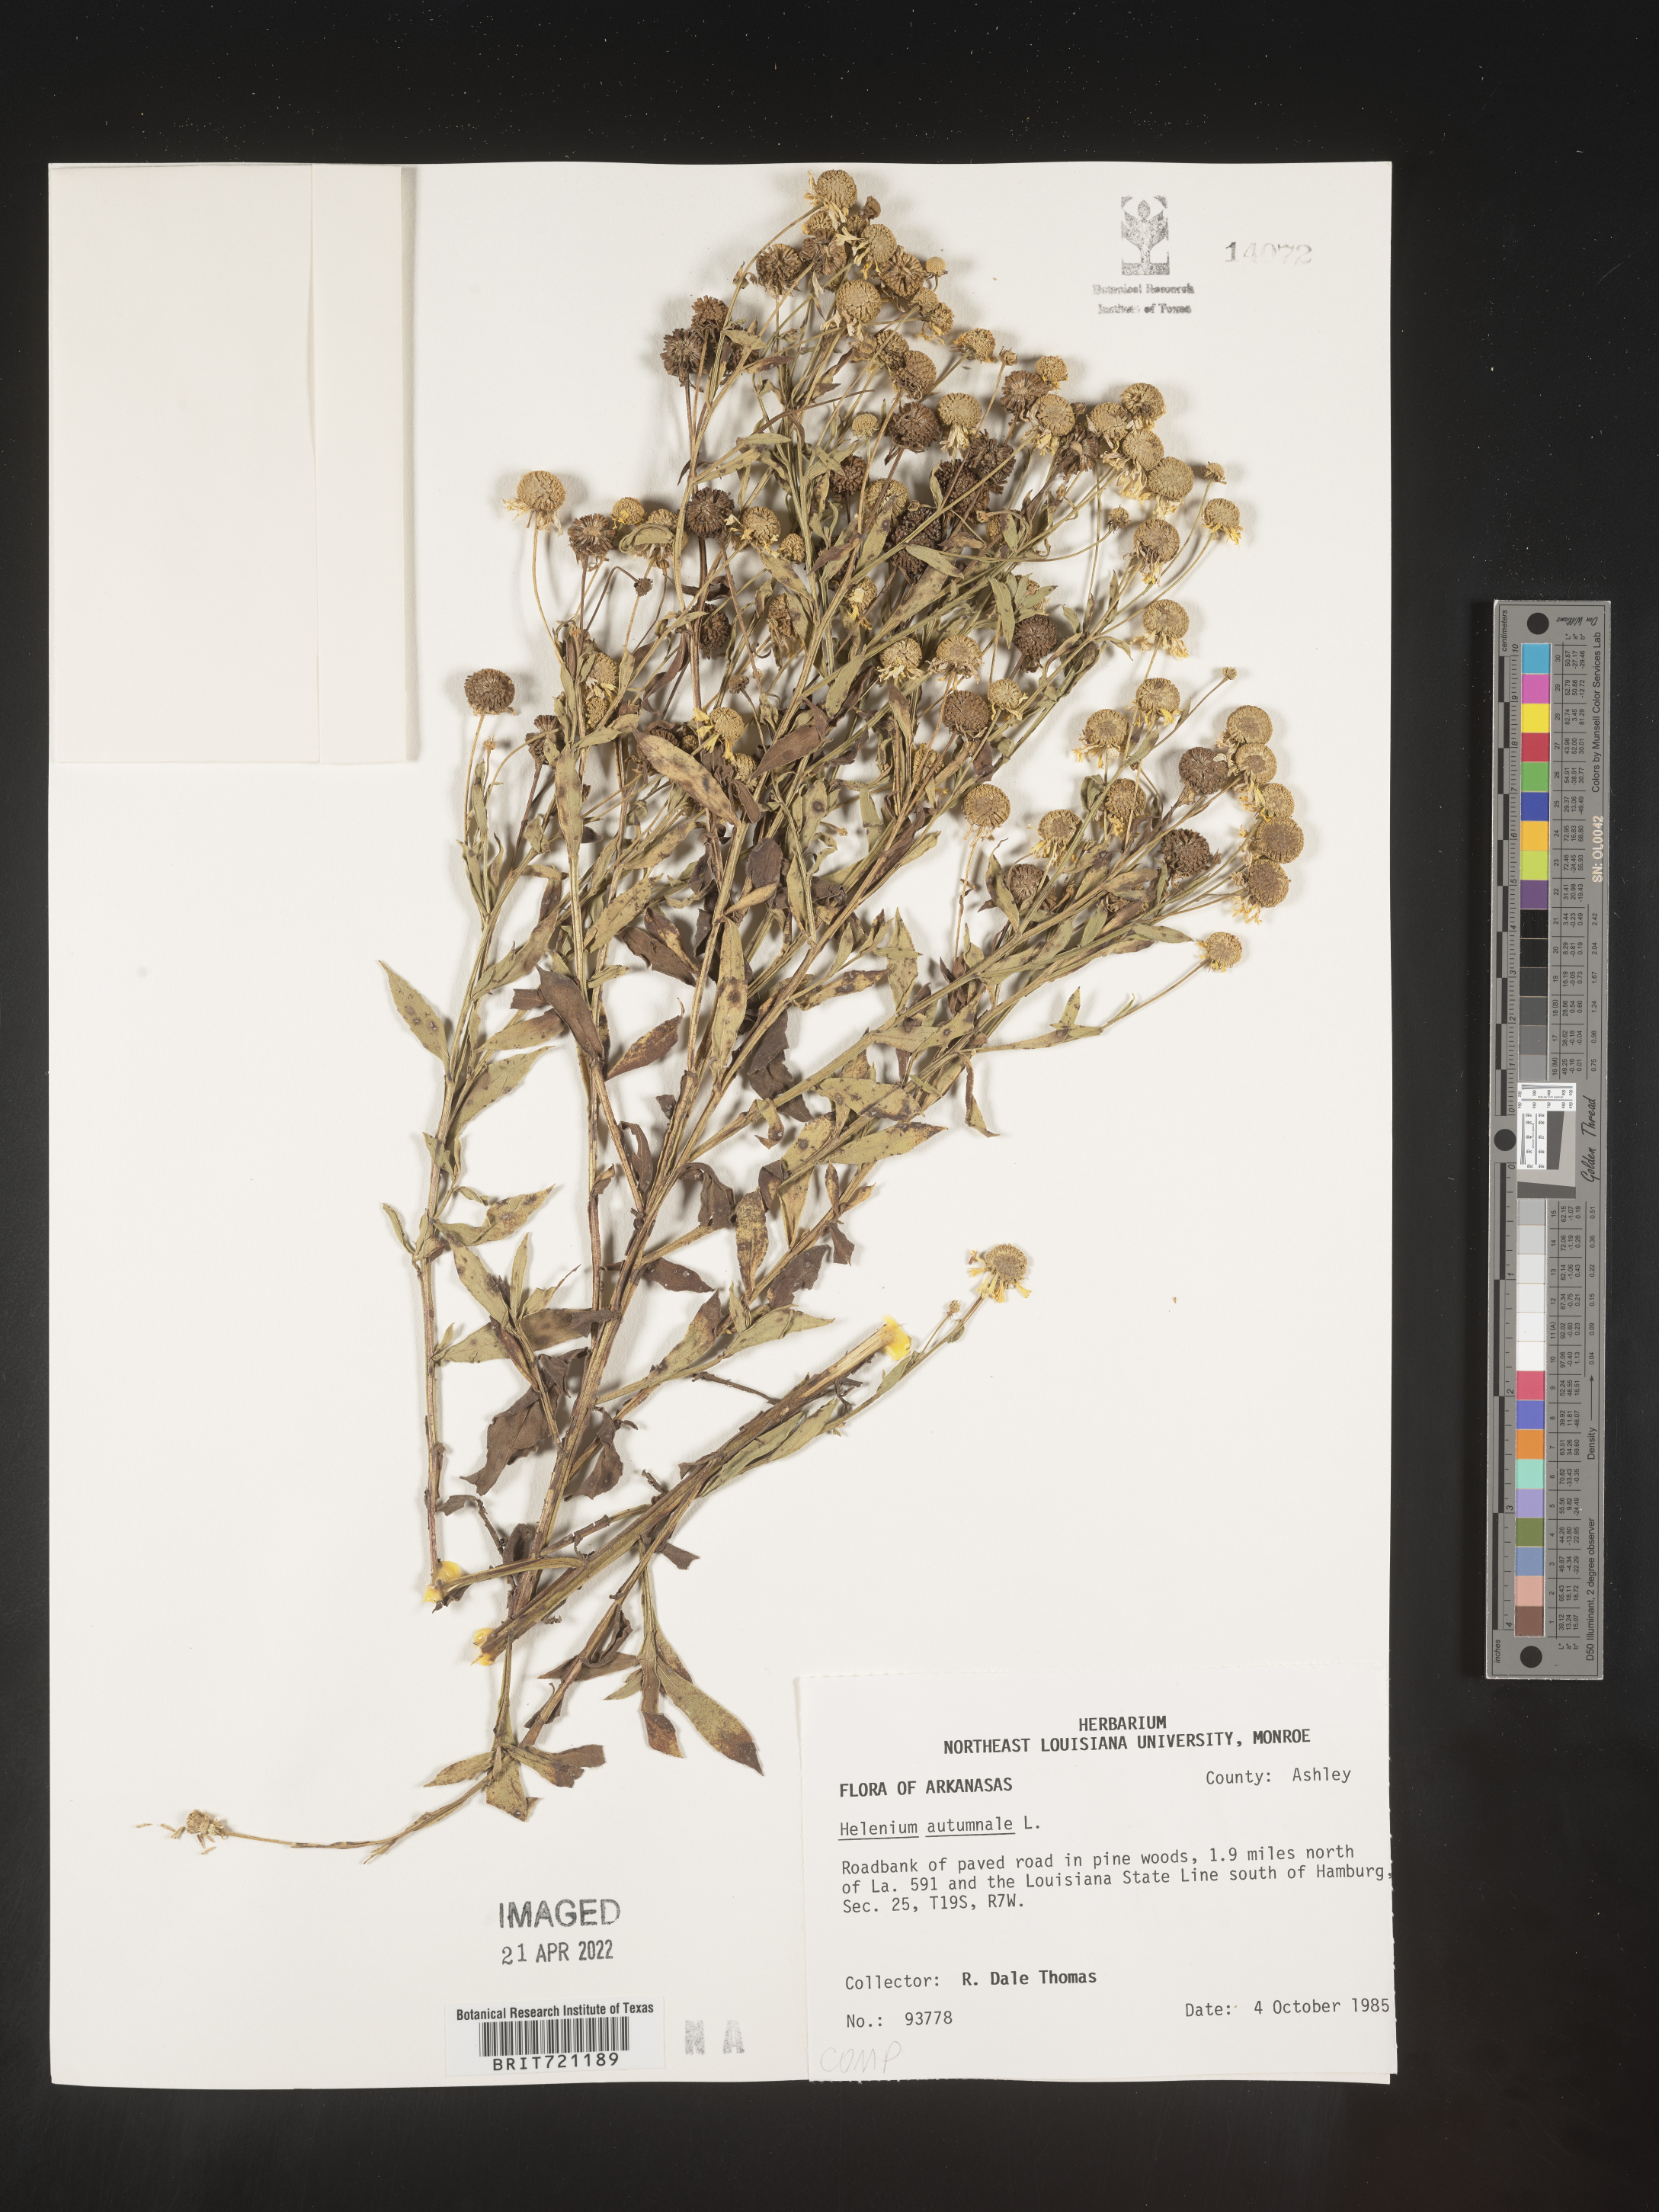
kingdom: Plantae
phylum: Tracheophyta
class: Magnoliopsida
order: Asterales
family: Asteraceae
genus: Helenium
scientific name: Helenium autumnale
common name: Sneezeweed
